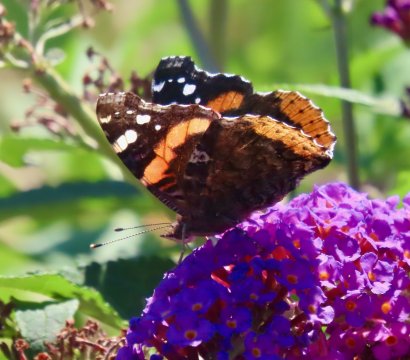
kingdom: Animalia
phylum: Arthropoda
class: Insecta
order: Lepidoptera
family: Nymphalidae
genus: Vanessa
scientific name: Vanessa atalanta
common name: Red Admiral
